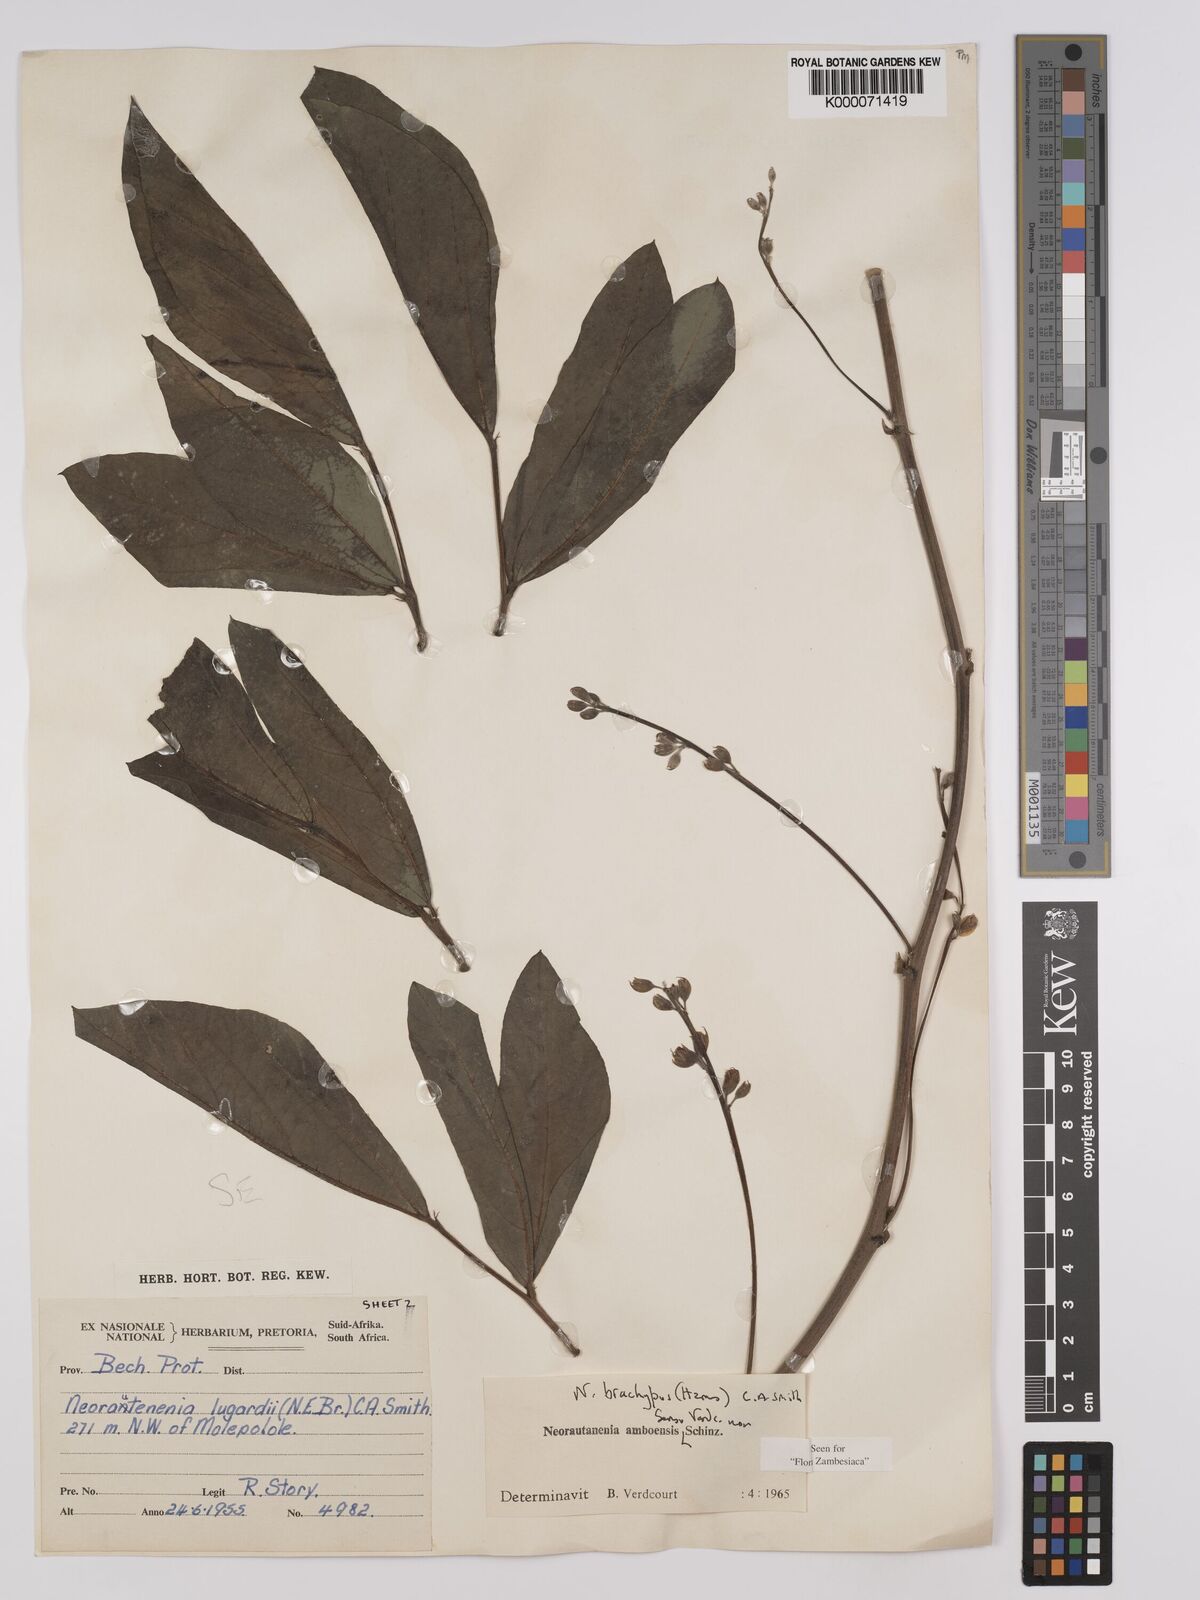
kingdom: Plantae
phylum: Tracheophyta
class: Magnoliopsida
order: Fabales
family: Fabaceae
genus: Neorautanenia
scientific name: Neorautanenia
